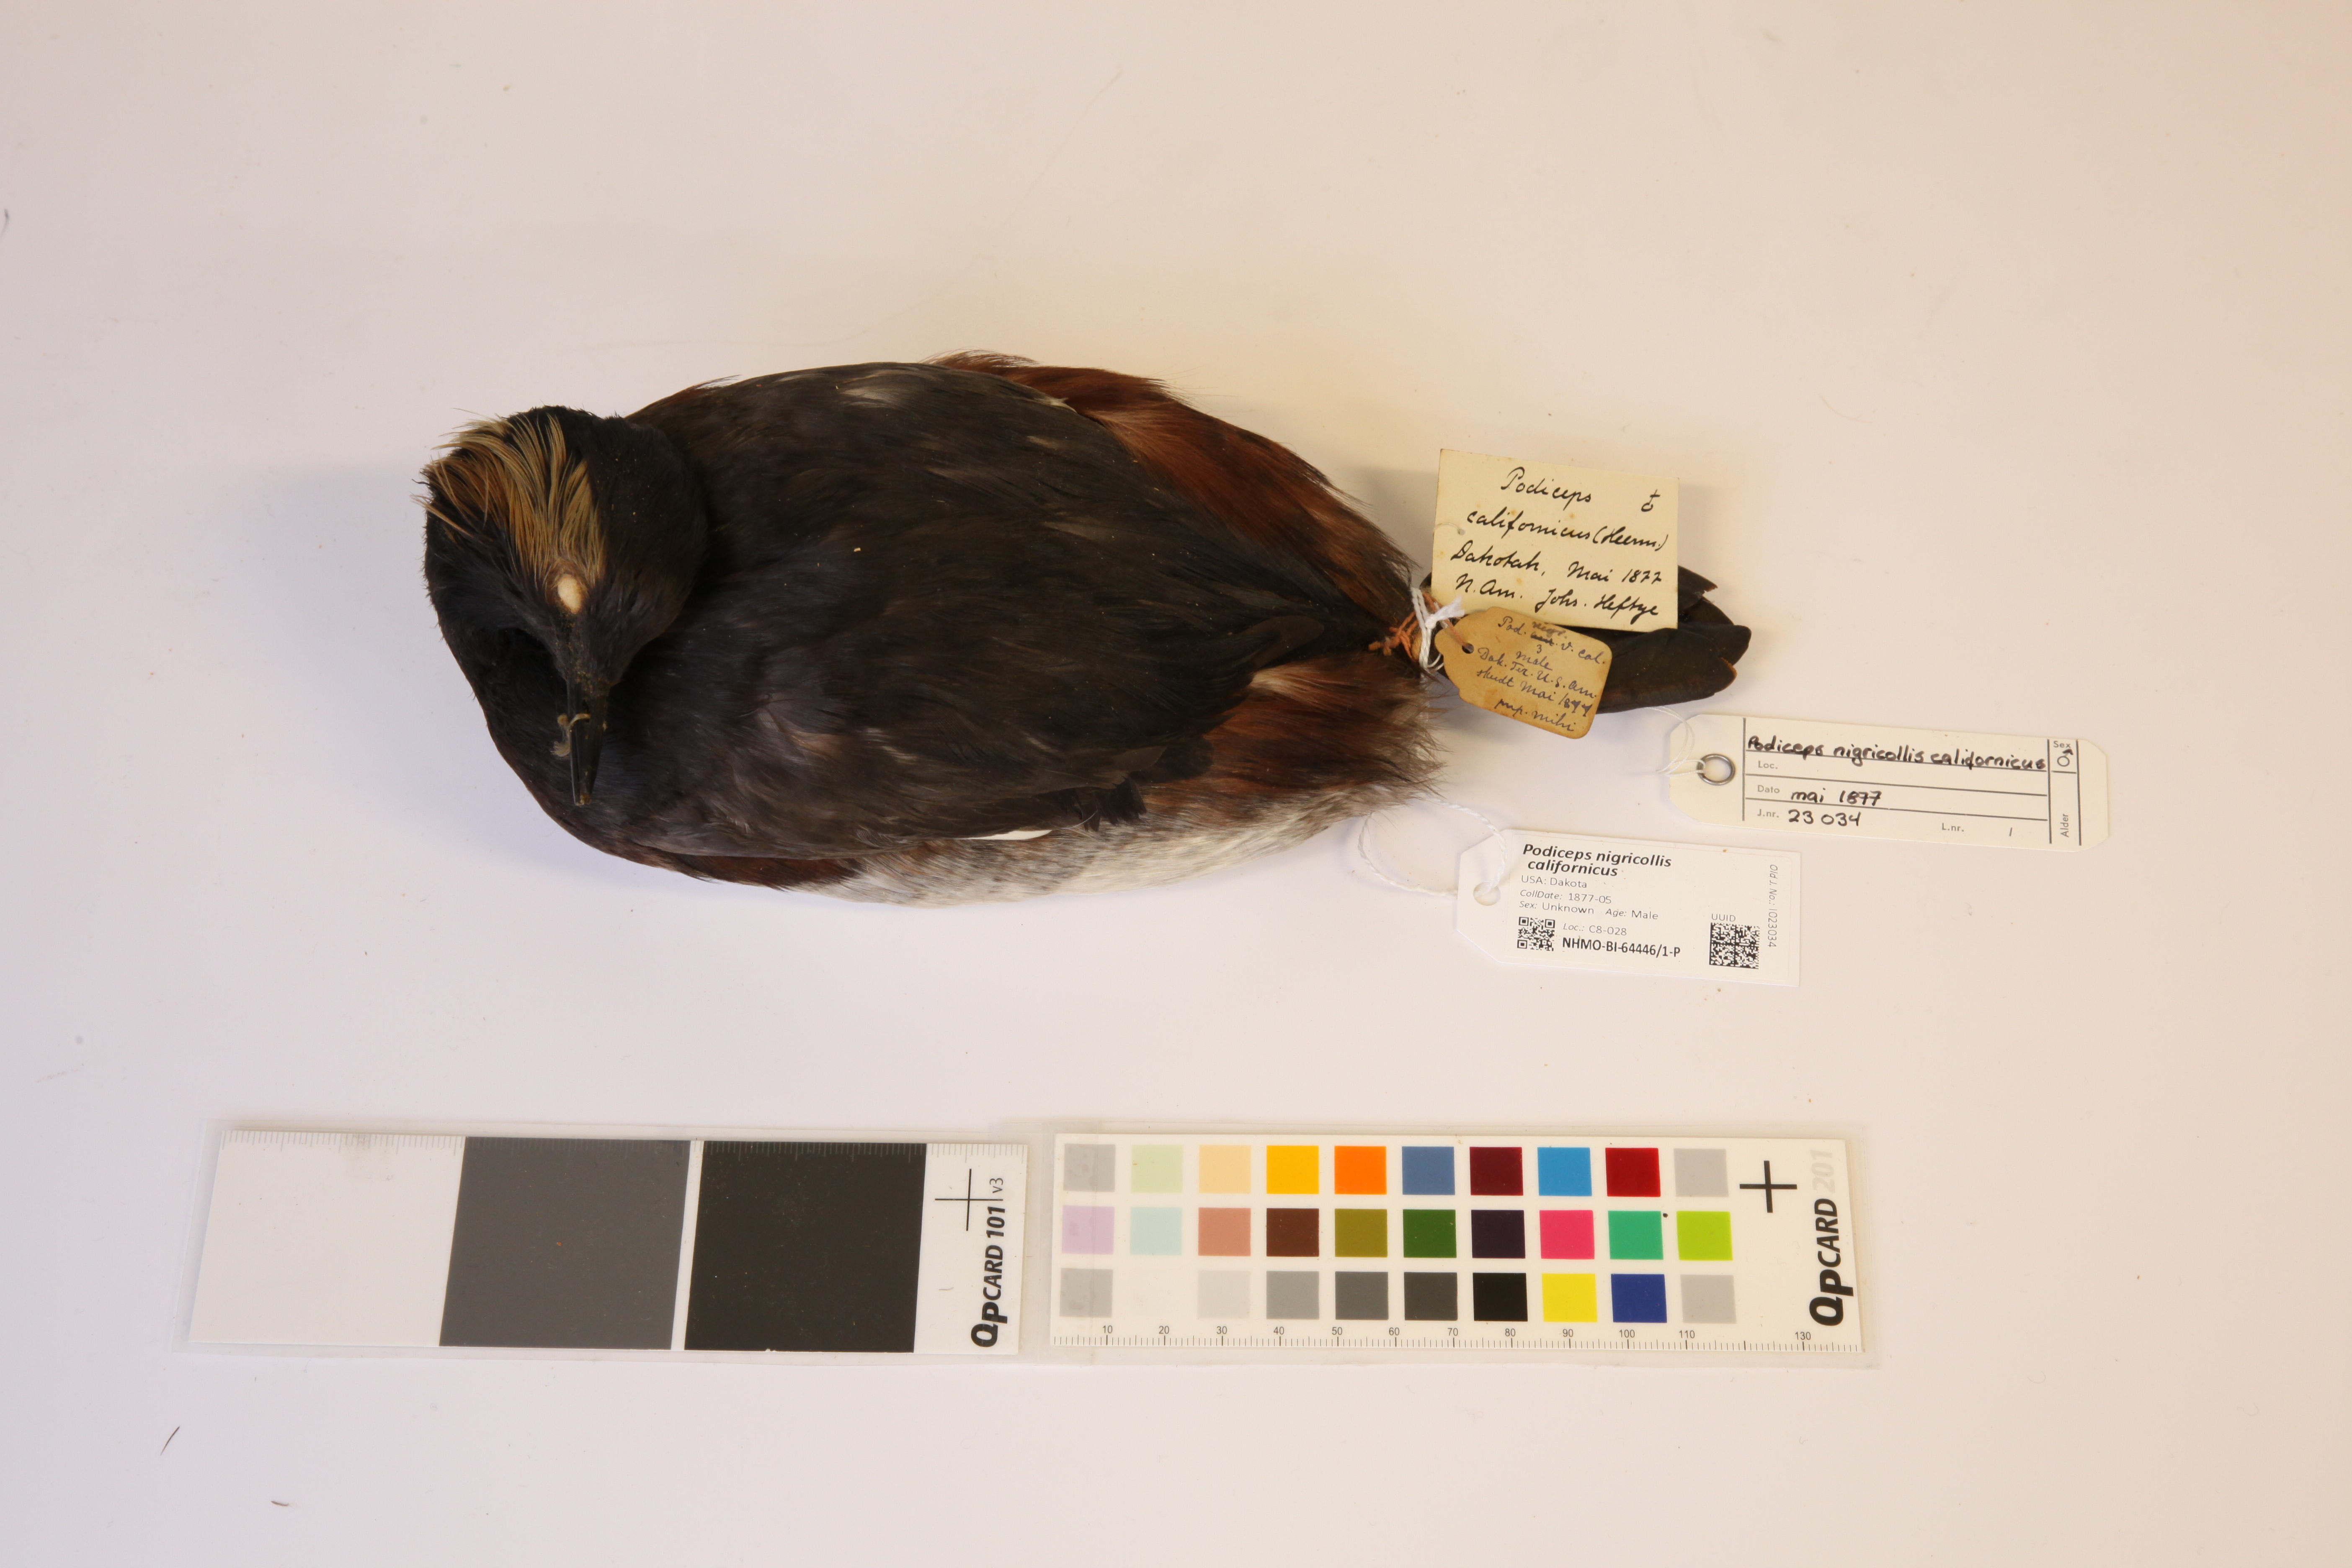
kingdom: Animalia
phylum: Chordata
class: Aves
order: Podicipediformes
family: Podicipedidae
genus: Podiceps
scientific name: Podiceps nigricollis
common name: Black-necked grebe
